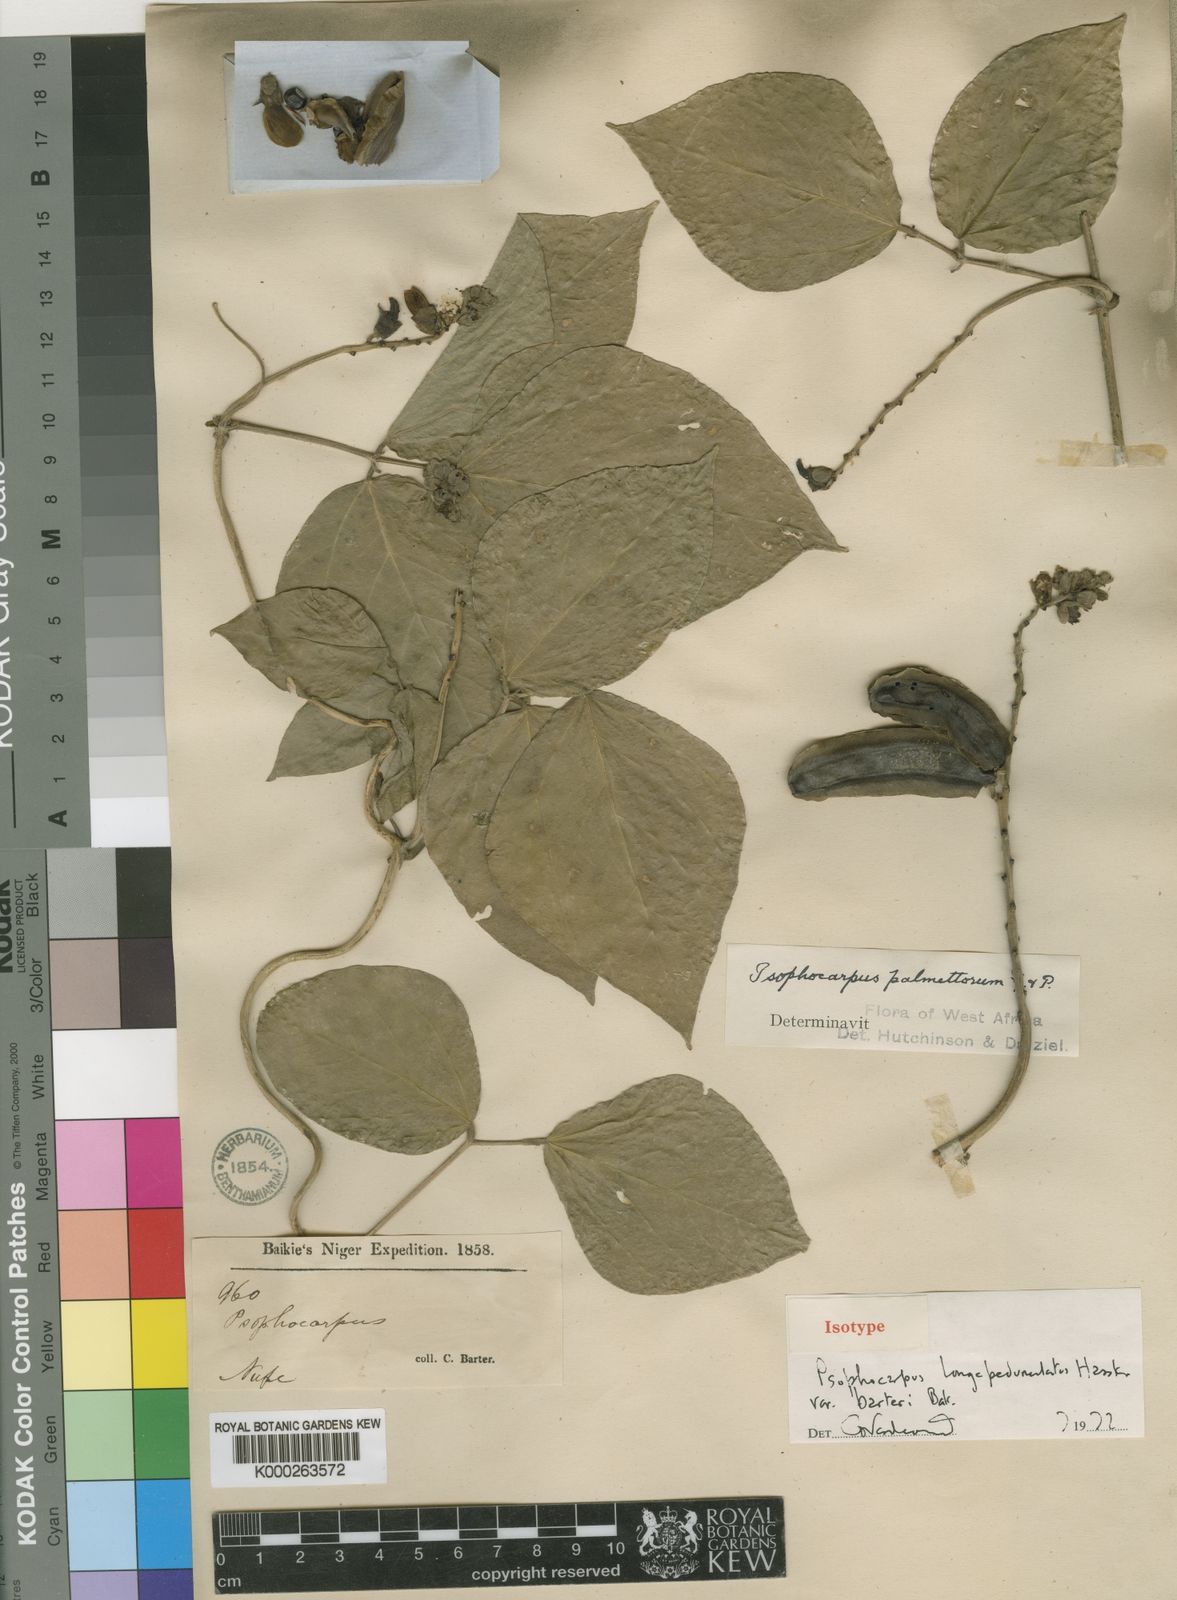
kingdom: Plantae
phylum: Tracheophyta
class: Magnoliopsida
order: Fabales
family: Fabaceae
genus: Psophocarpus
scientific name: Psophocarpus palustris
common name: African winged-bean
